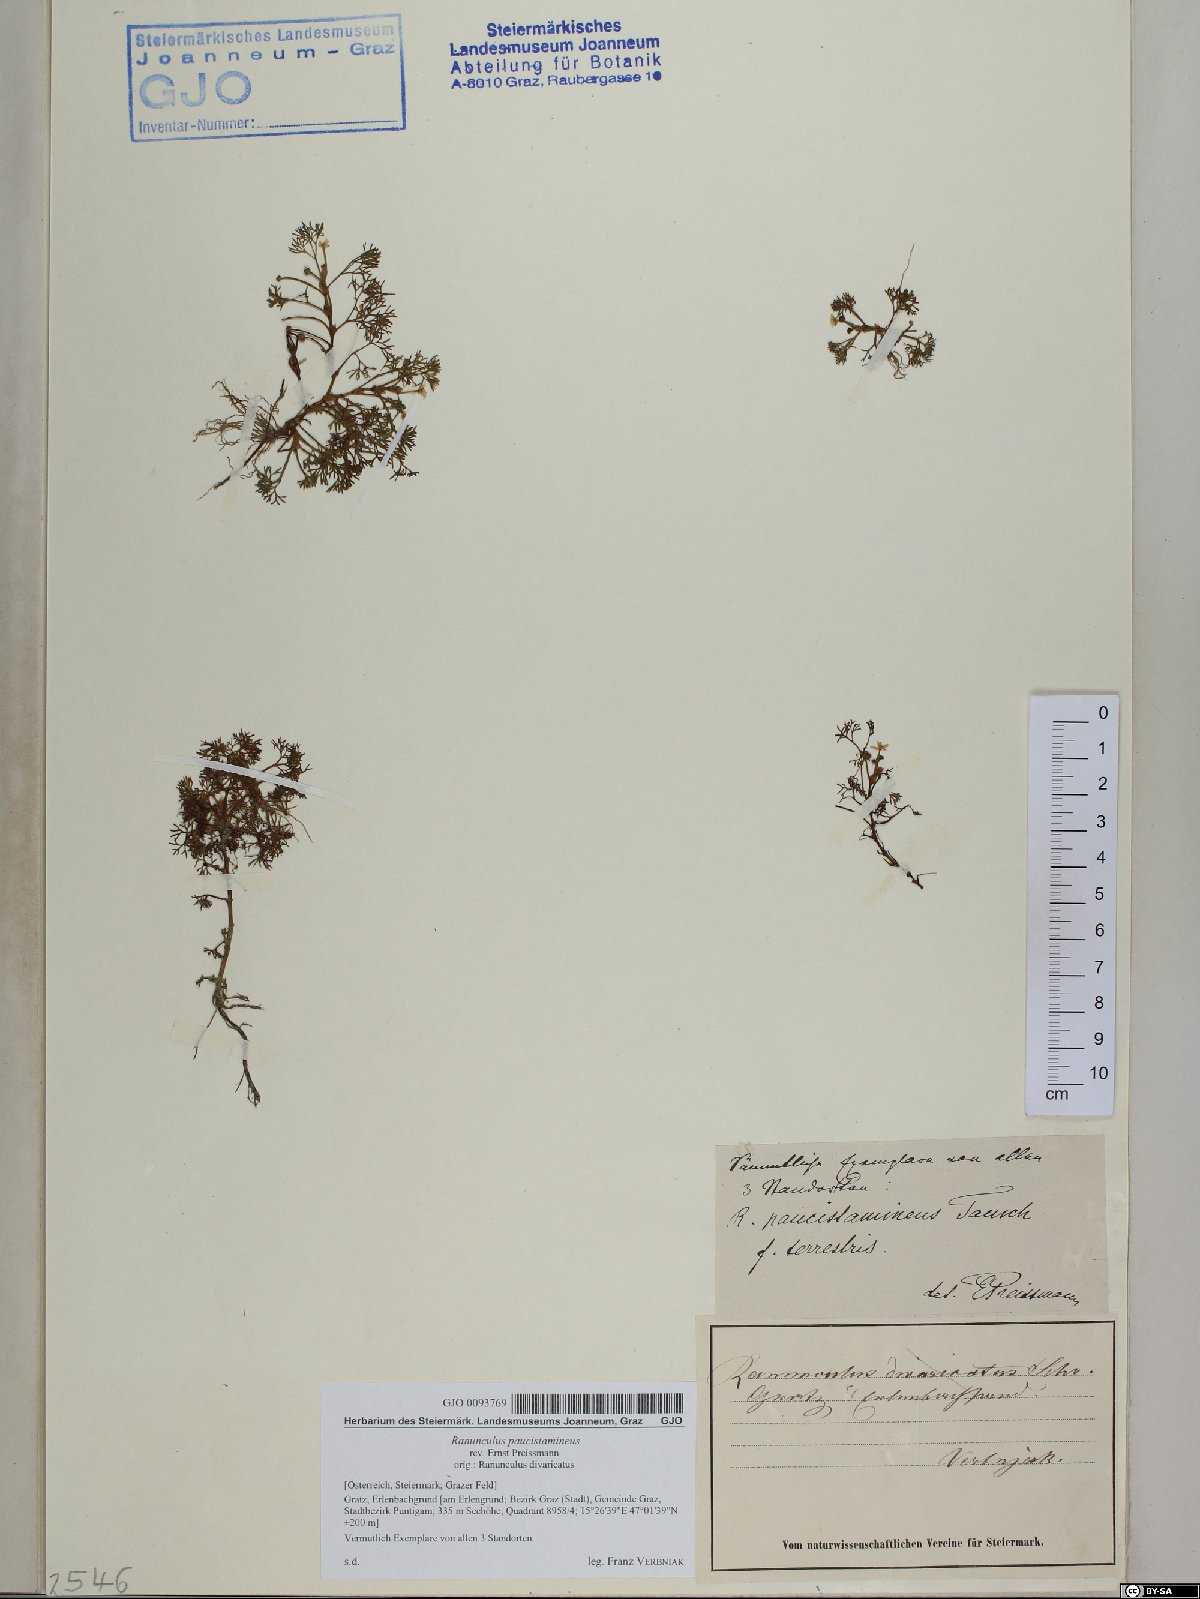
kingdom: Plantae
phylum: Tracheophyta
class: Magnoliopsida
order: Ranunculales
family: Ranunculaceae
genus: Ranunculus
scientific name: Ranunculus
